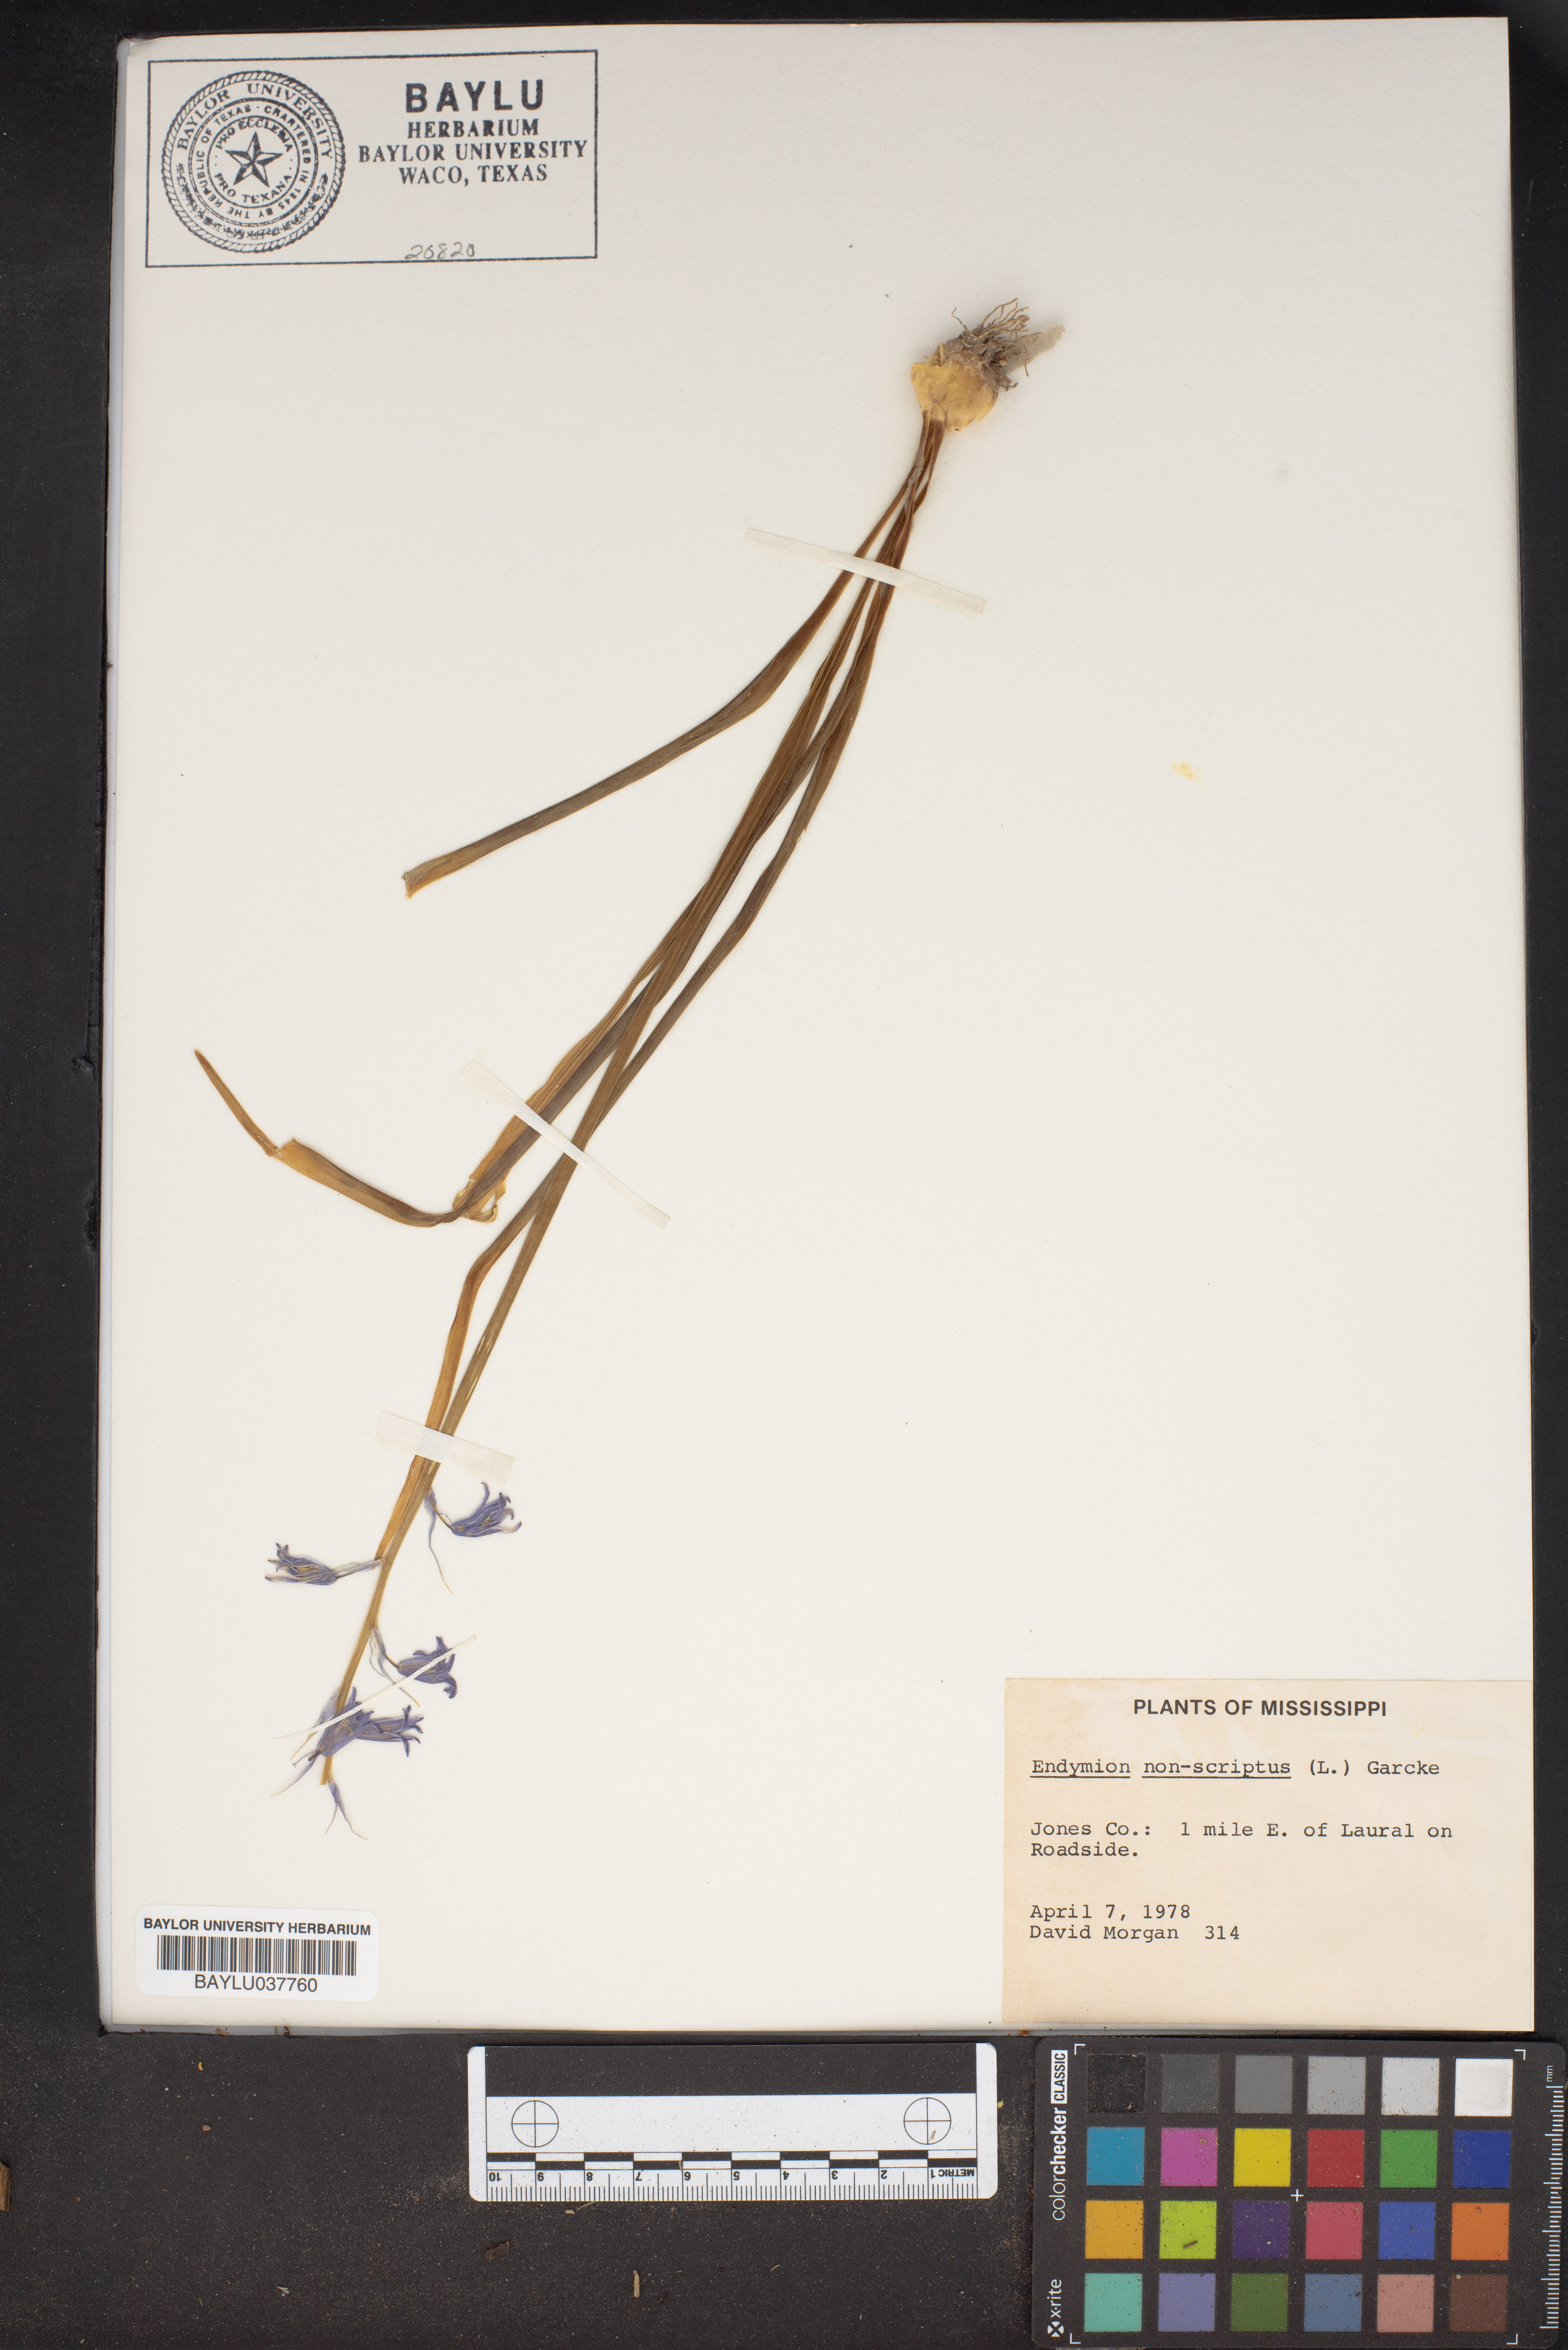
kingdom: Plantae
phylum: Tracheophyta
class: Liliopsida
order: Asparagales
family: Asparagaceae
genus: Hyacinthoides
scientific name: Hyacinthoides non-scripta
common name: Bluebell
